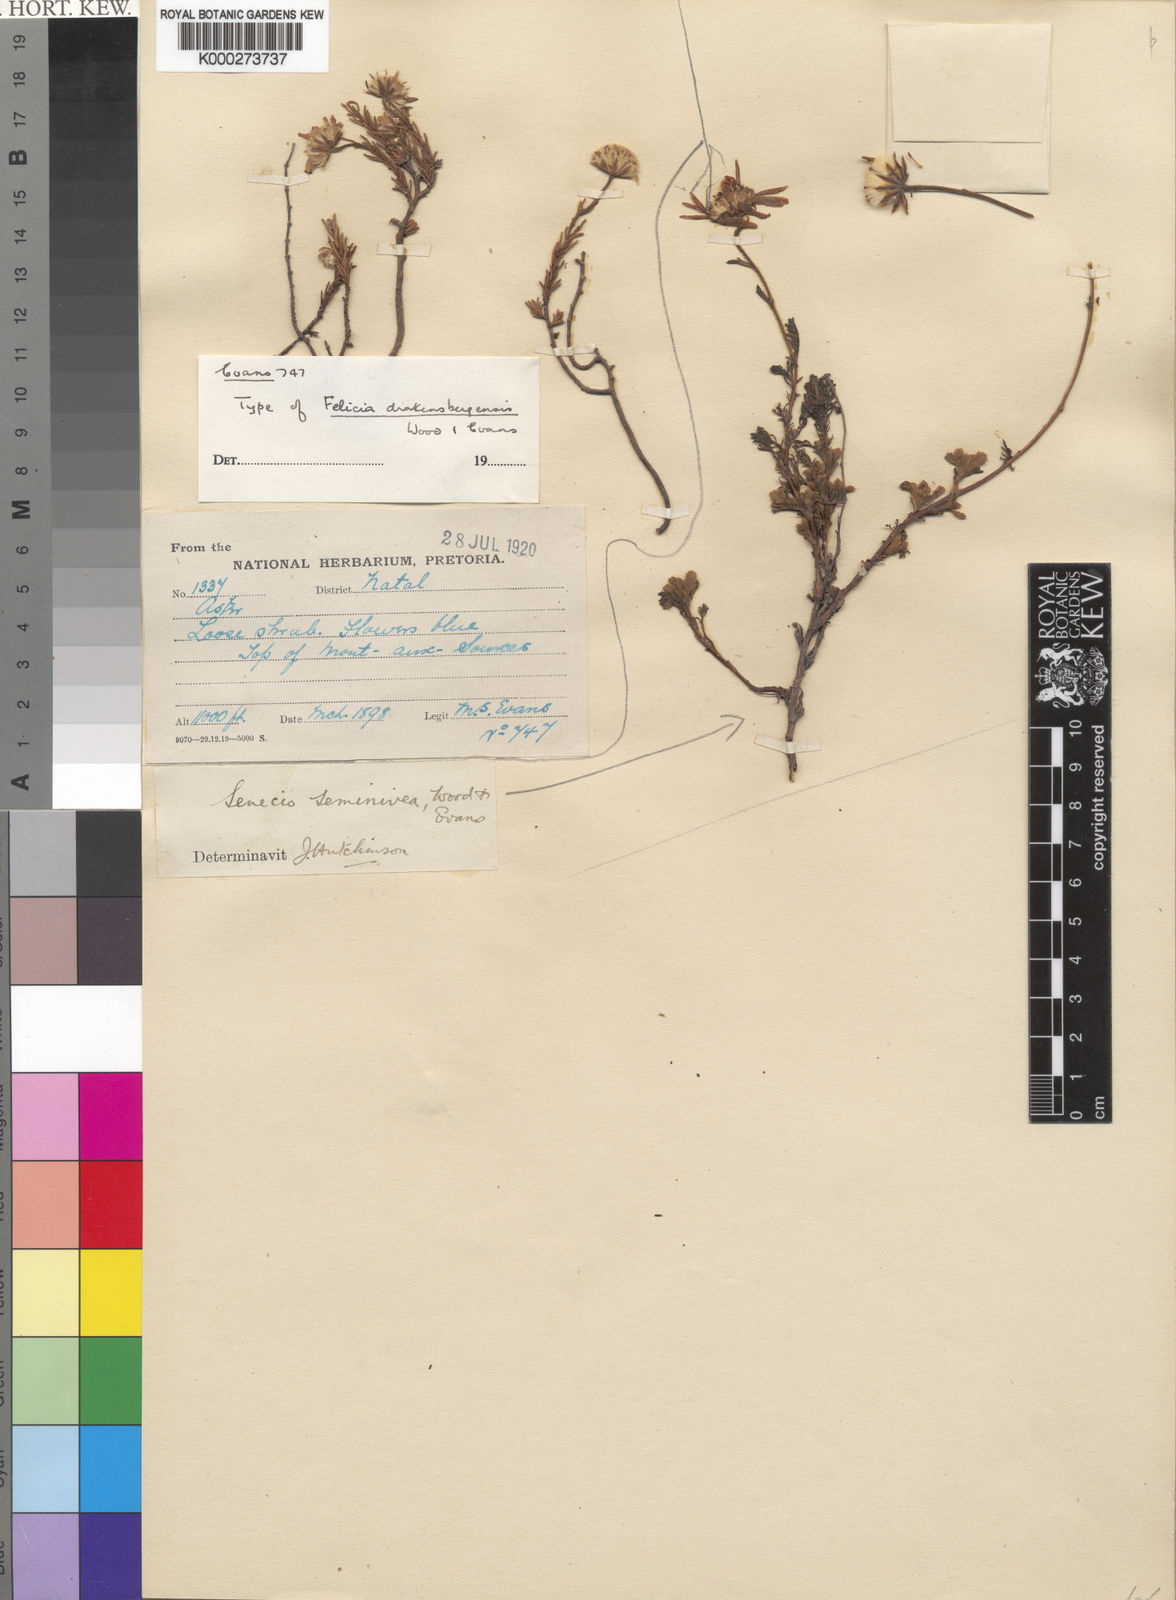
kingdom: Plantae
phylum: Tracheophyta
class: Magnoliopsida
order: Asterales
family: Asteraceae
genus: Felicia
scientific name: Felicia drakensbergensis
